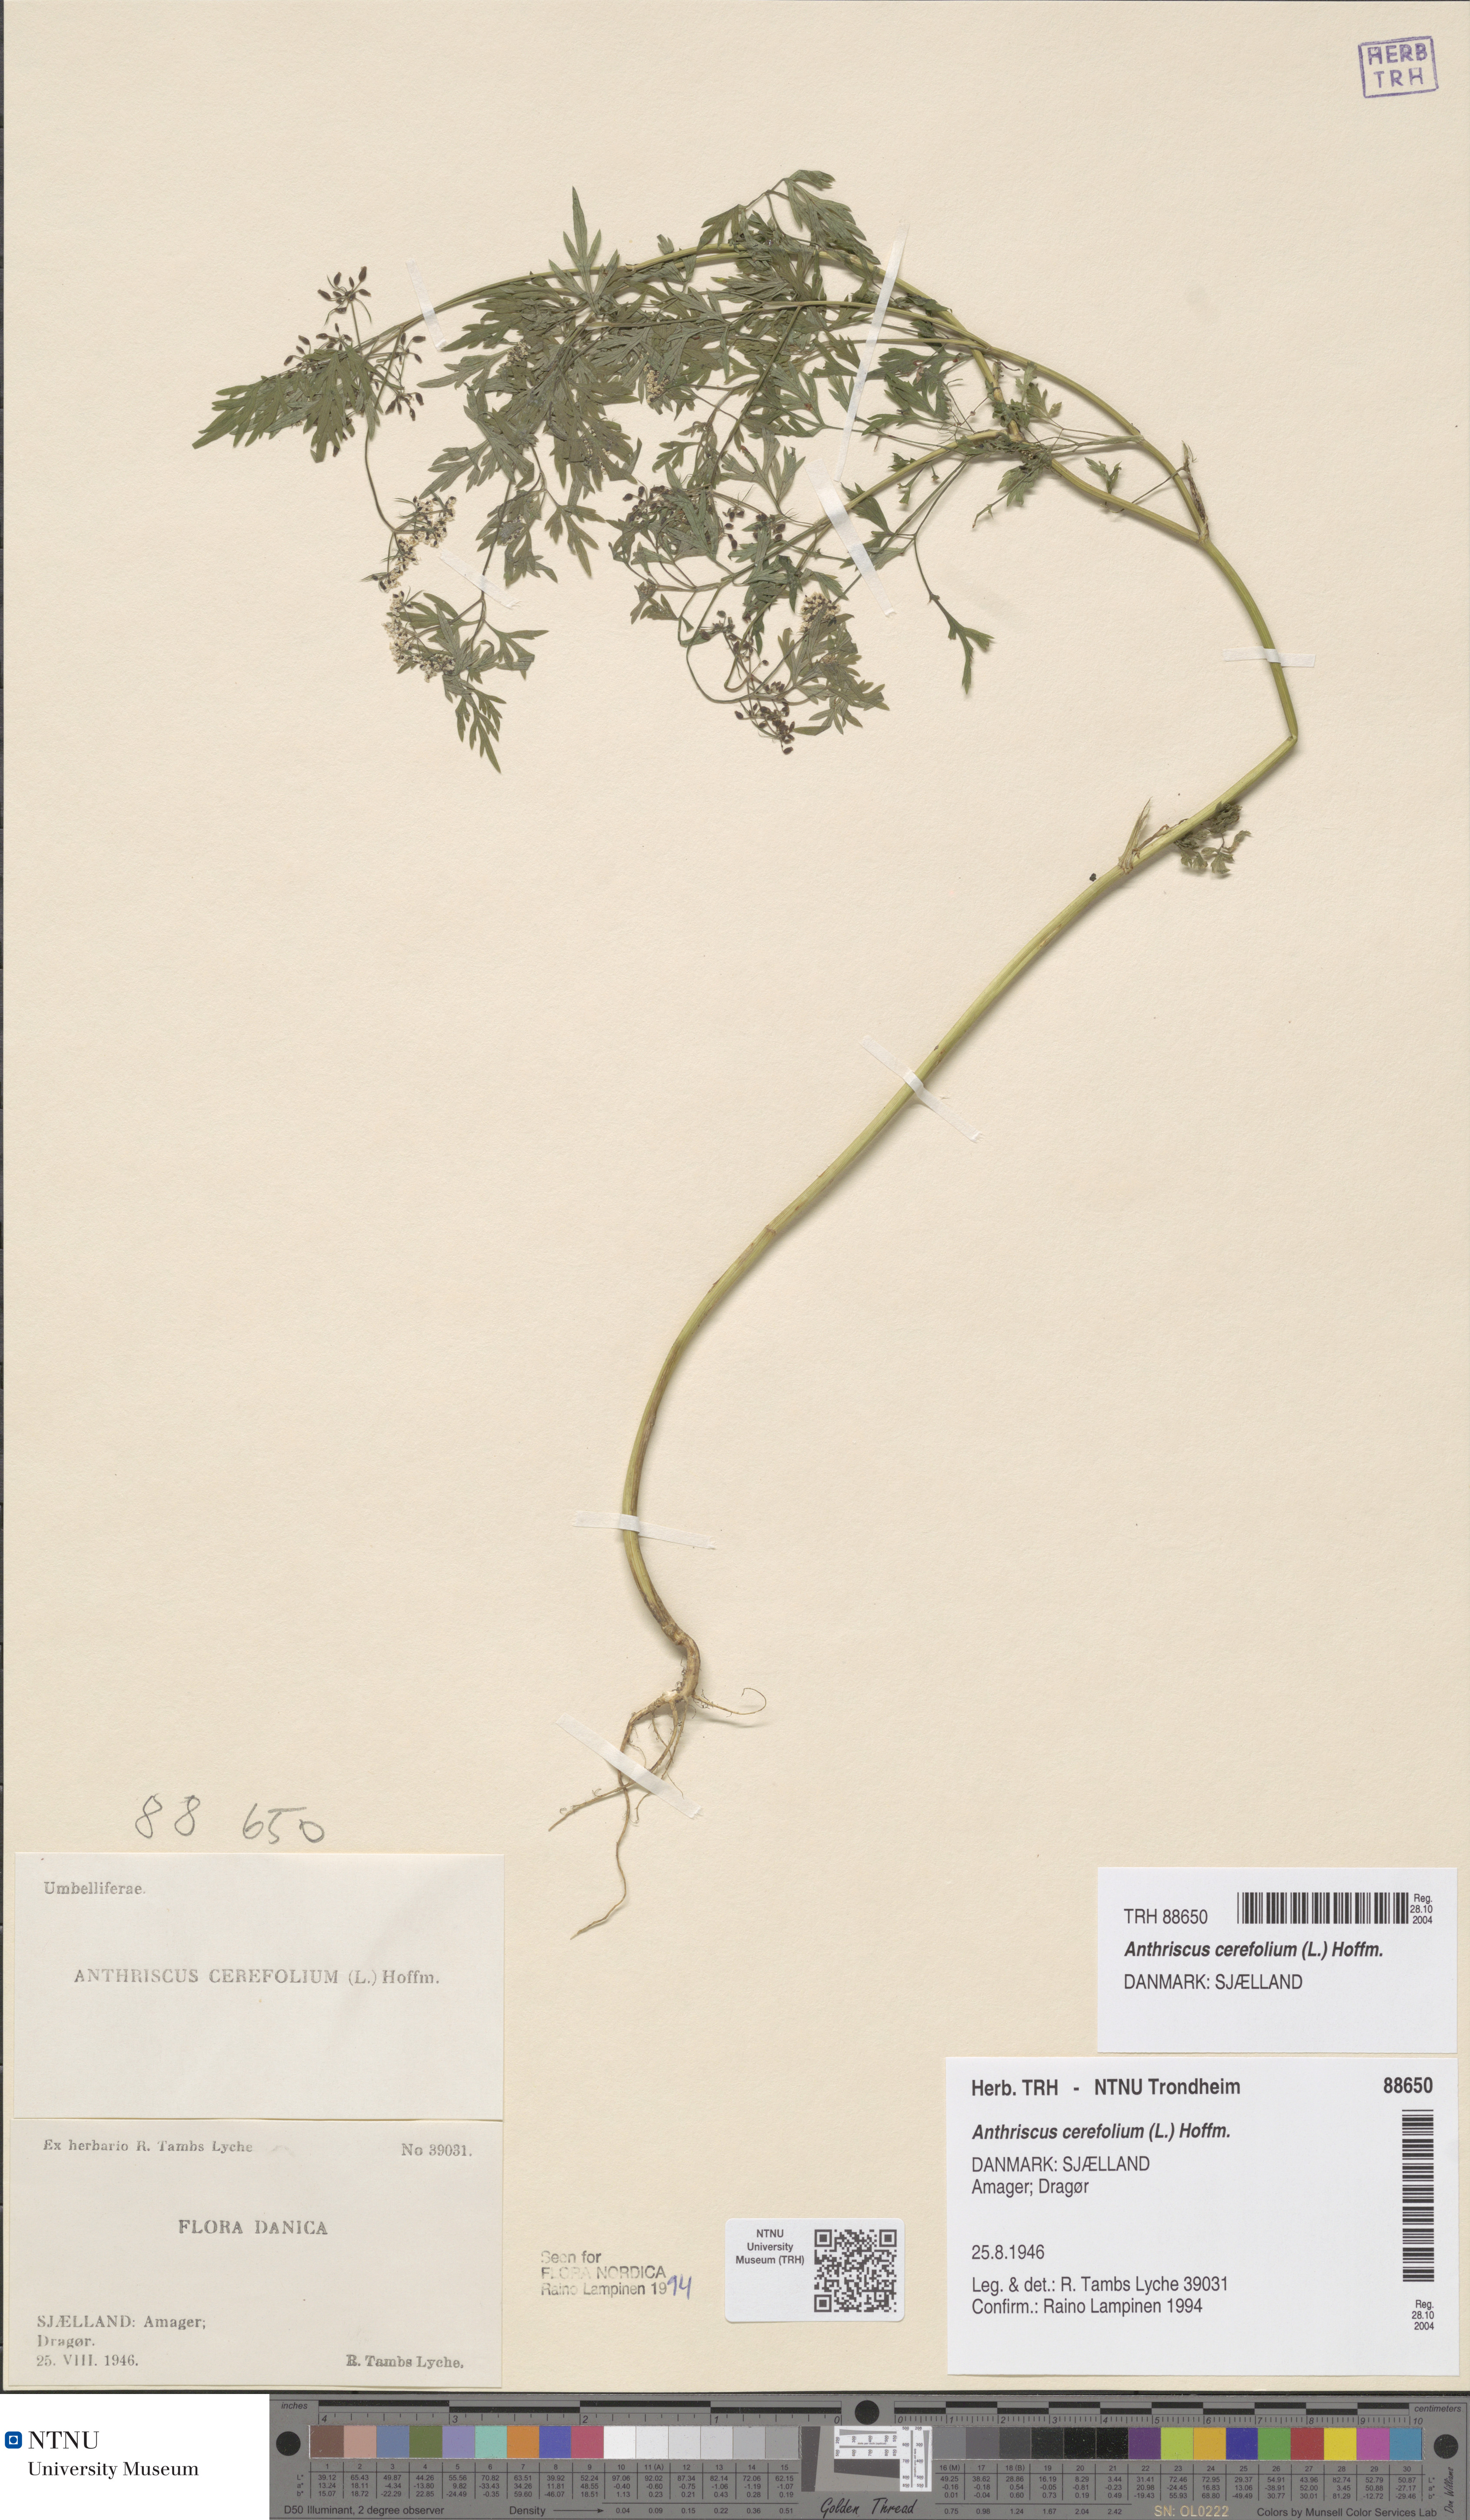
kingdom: Plantae
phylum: Tracheophyta
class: Magnoliopsida
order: Apiales
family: Apiaceae
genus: Anthriscus
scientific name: Anthriscus cerefolium
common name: Garden chervil
